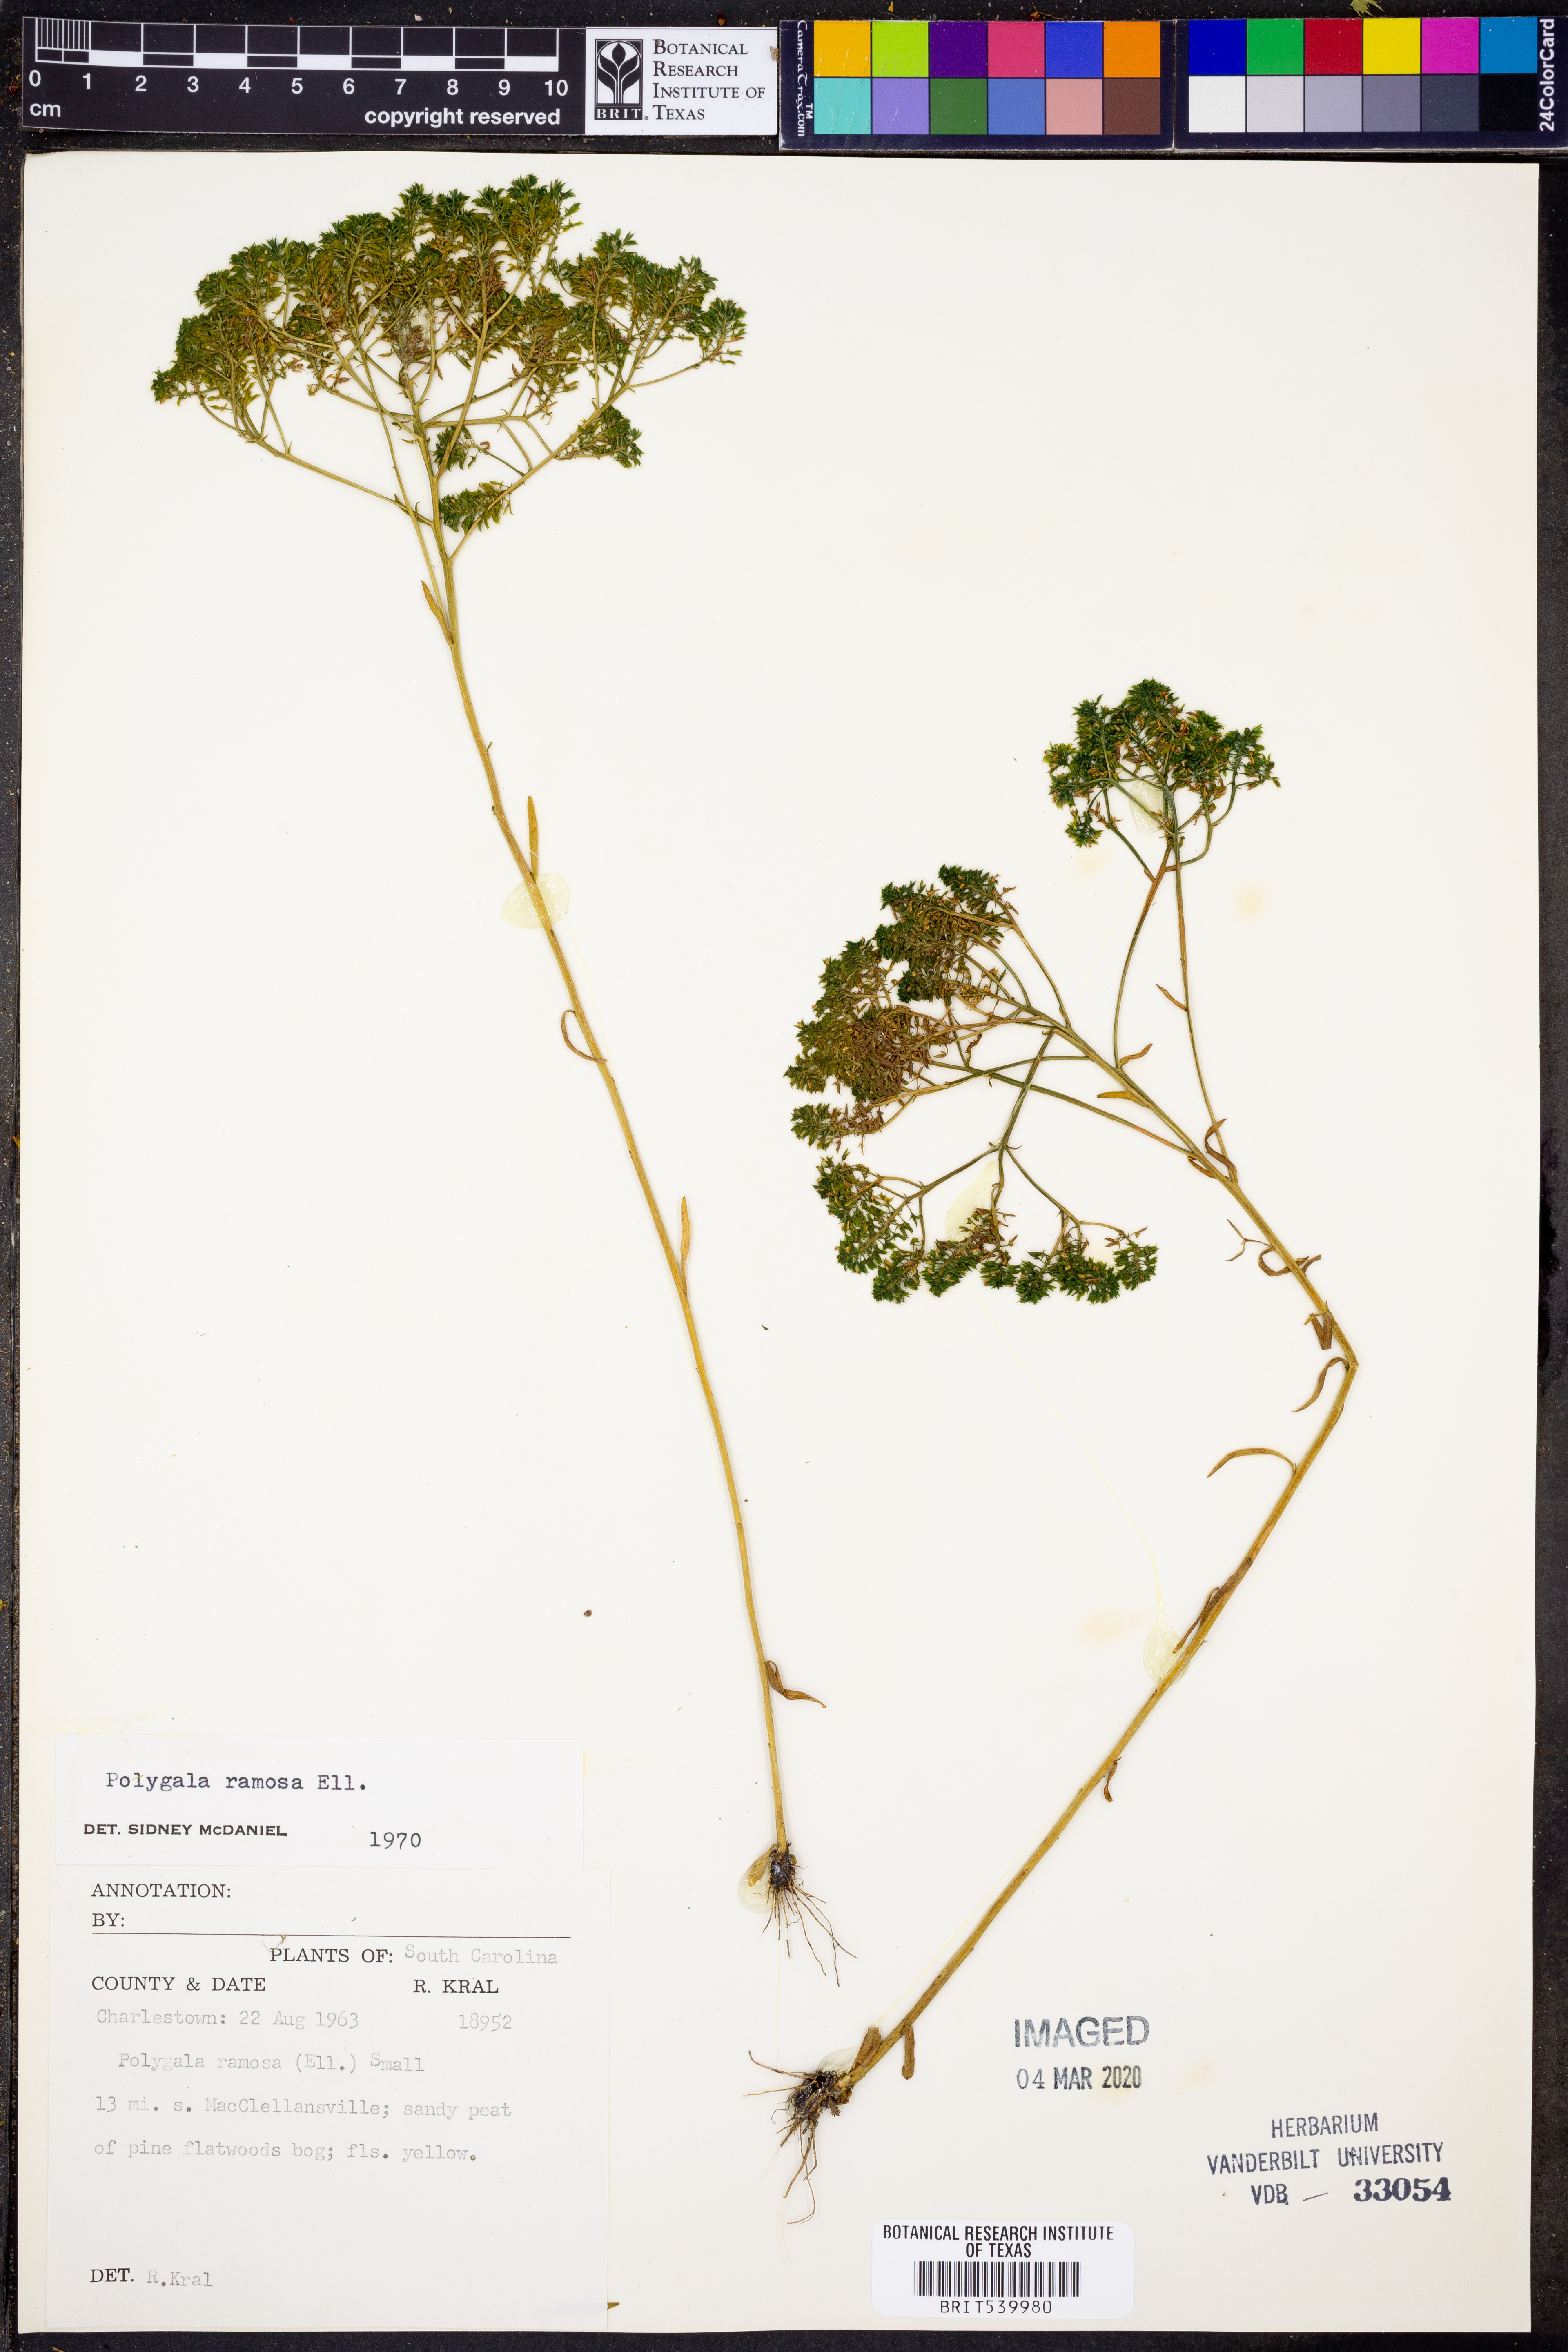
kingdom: Plantae
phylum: Tracheophyta
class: Magnoliopsida
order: Fabales
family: Polygalaceae
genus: Polygala
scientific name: Polygala ramosa
